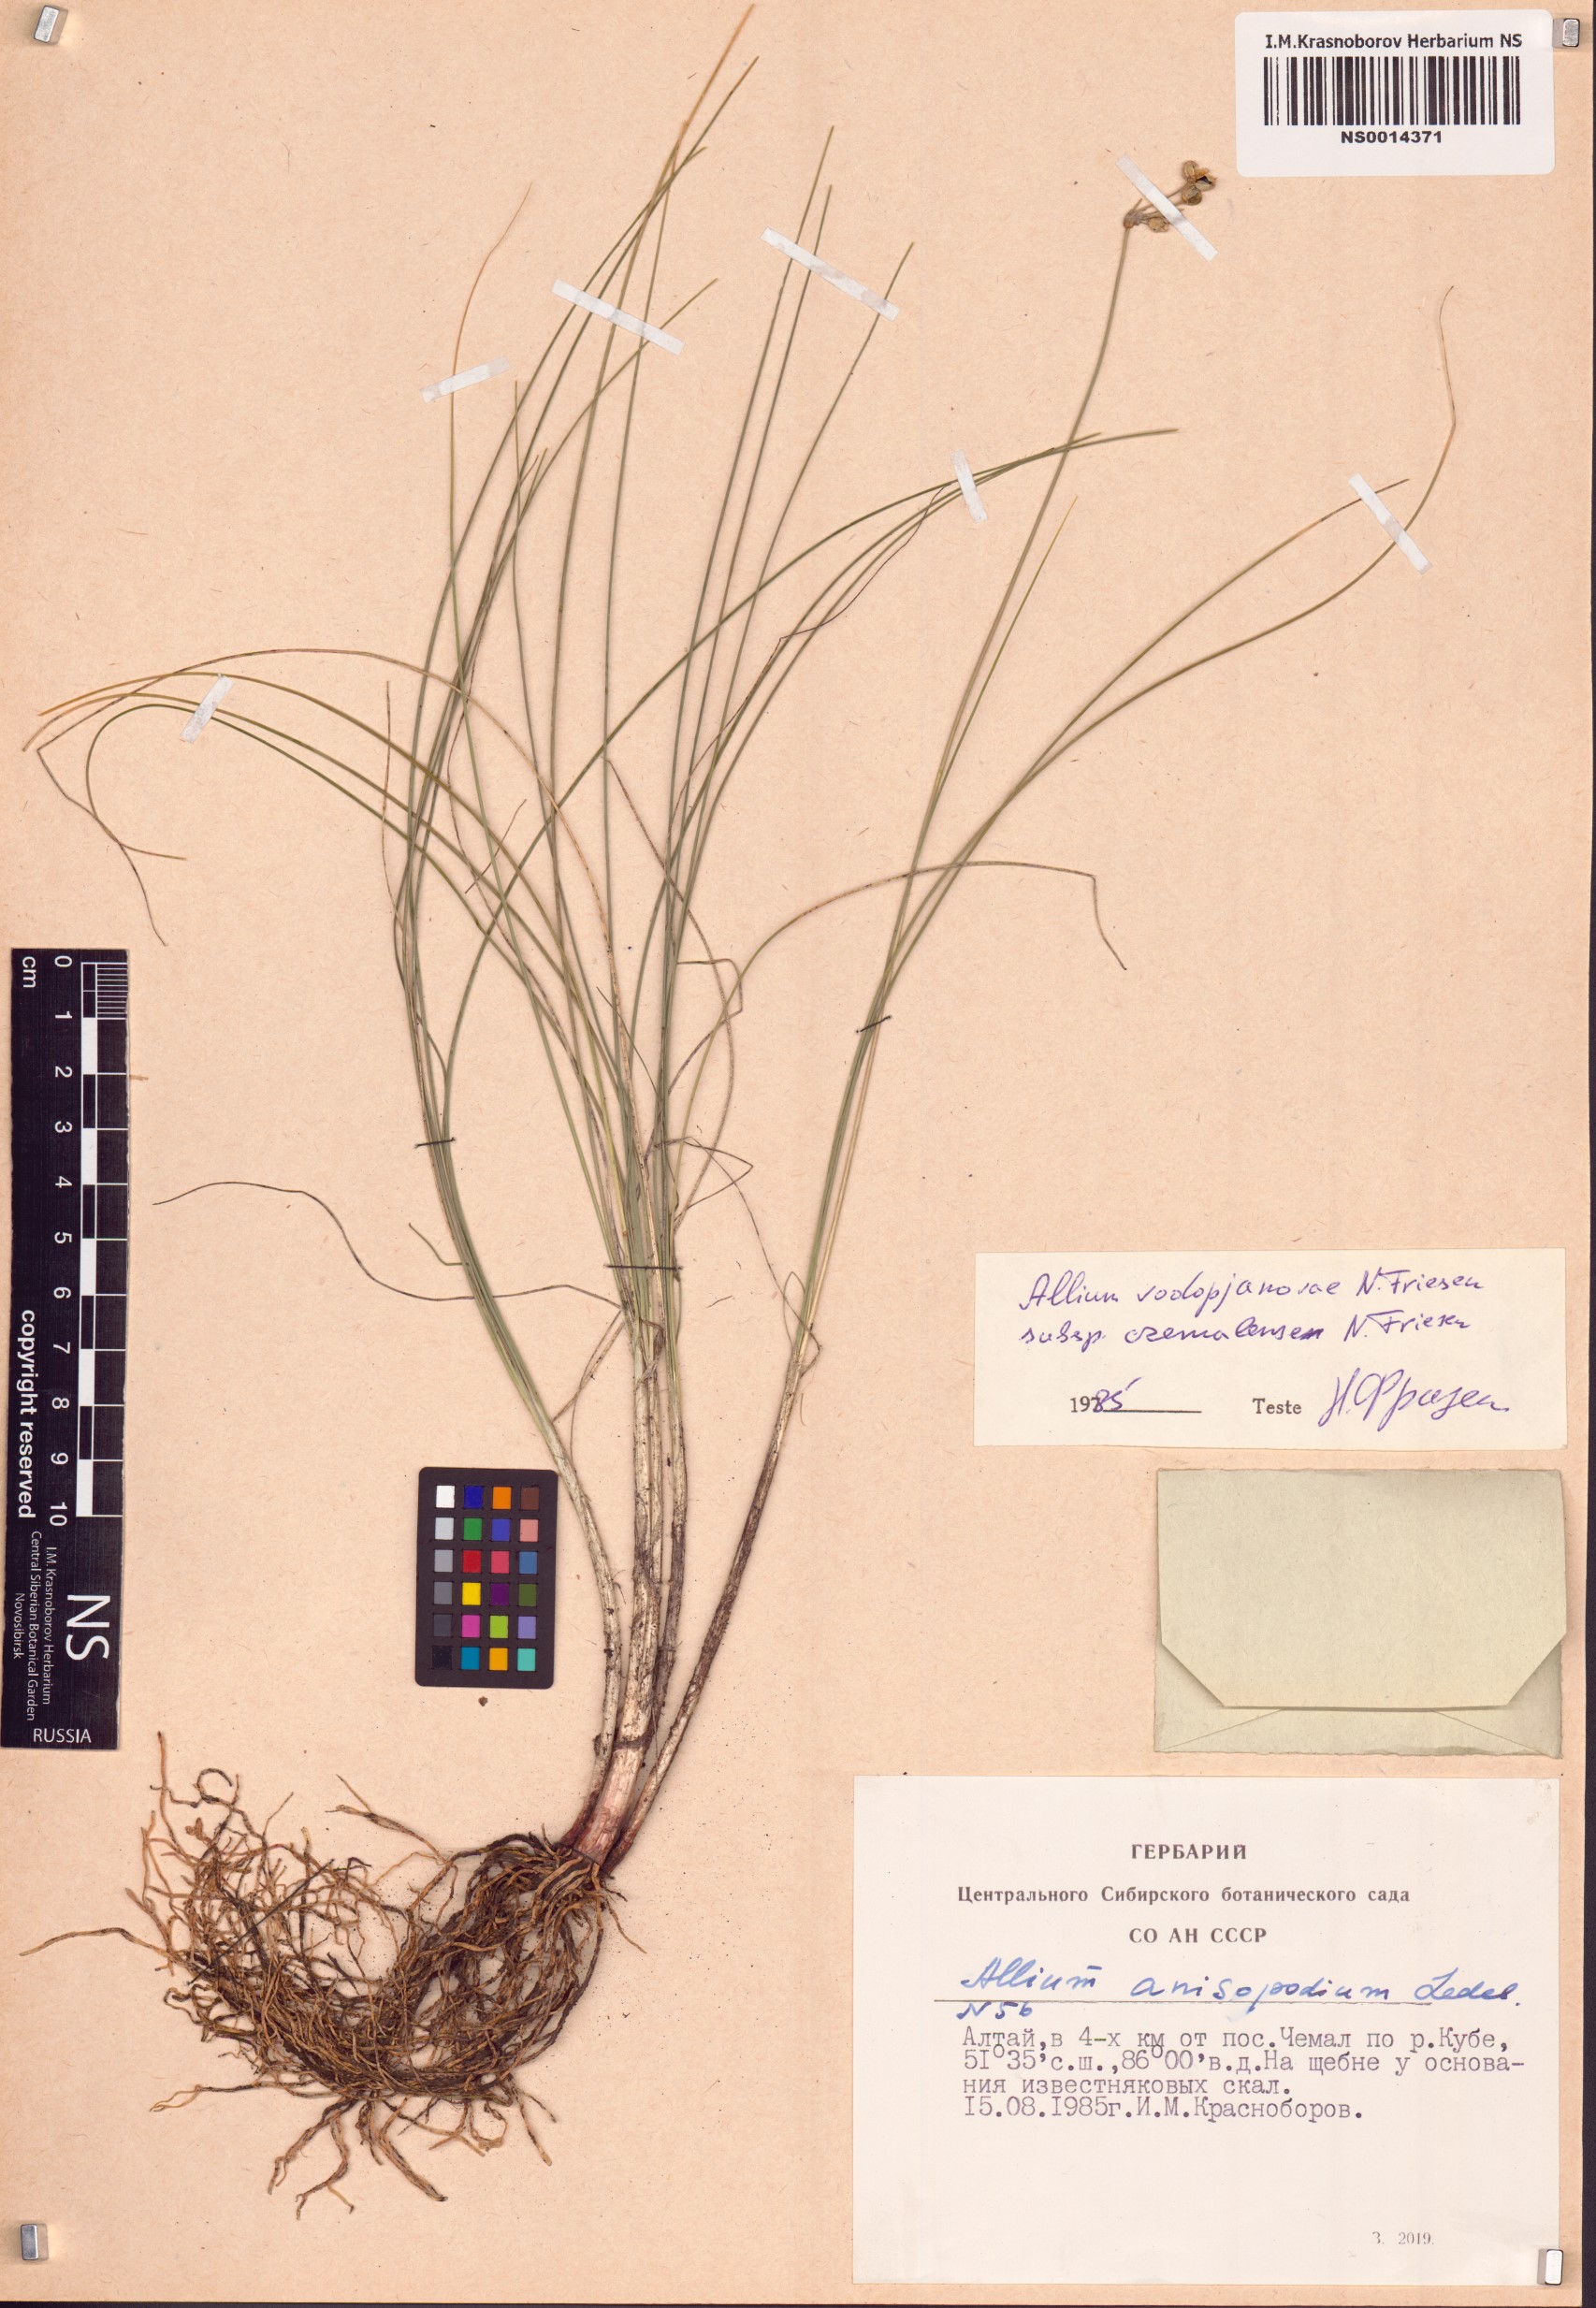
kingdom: Plantae
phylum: Tracheophyta
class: Liliopsida
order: Asparagales
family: Amaryllidaceae
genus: Allium
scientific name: Allium vodopjanovae
